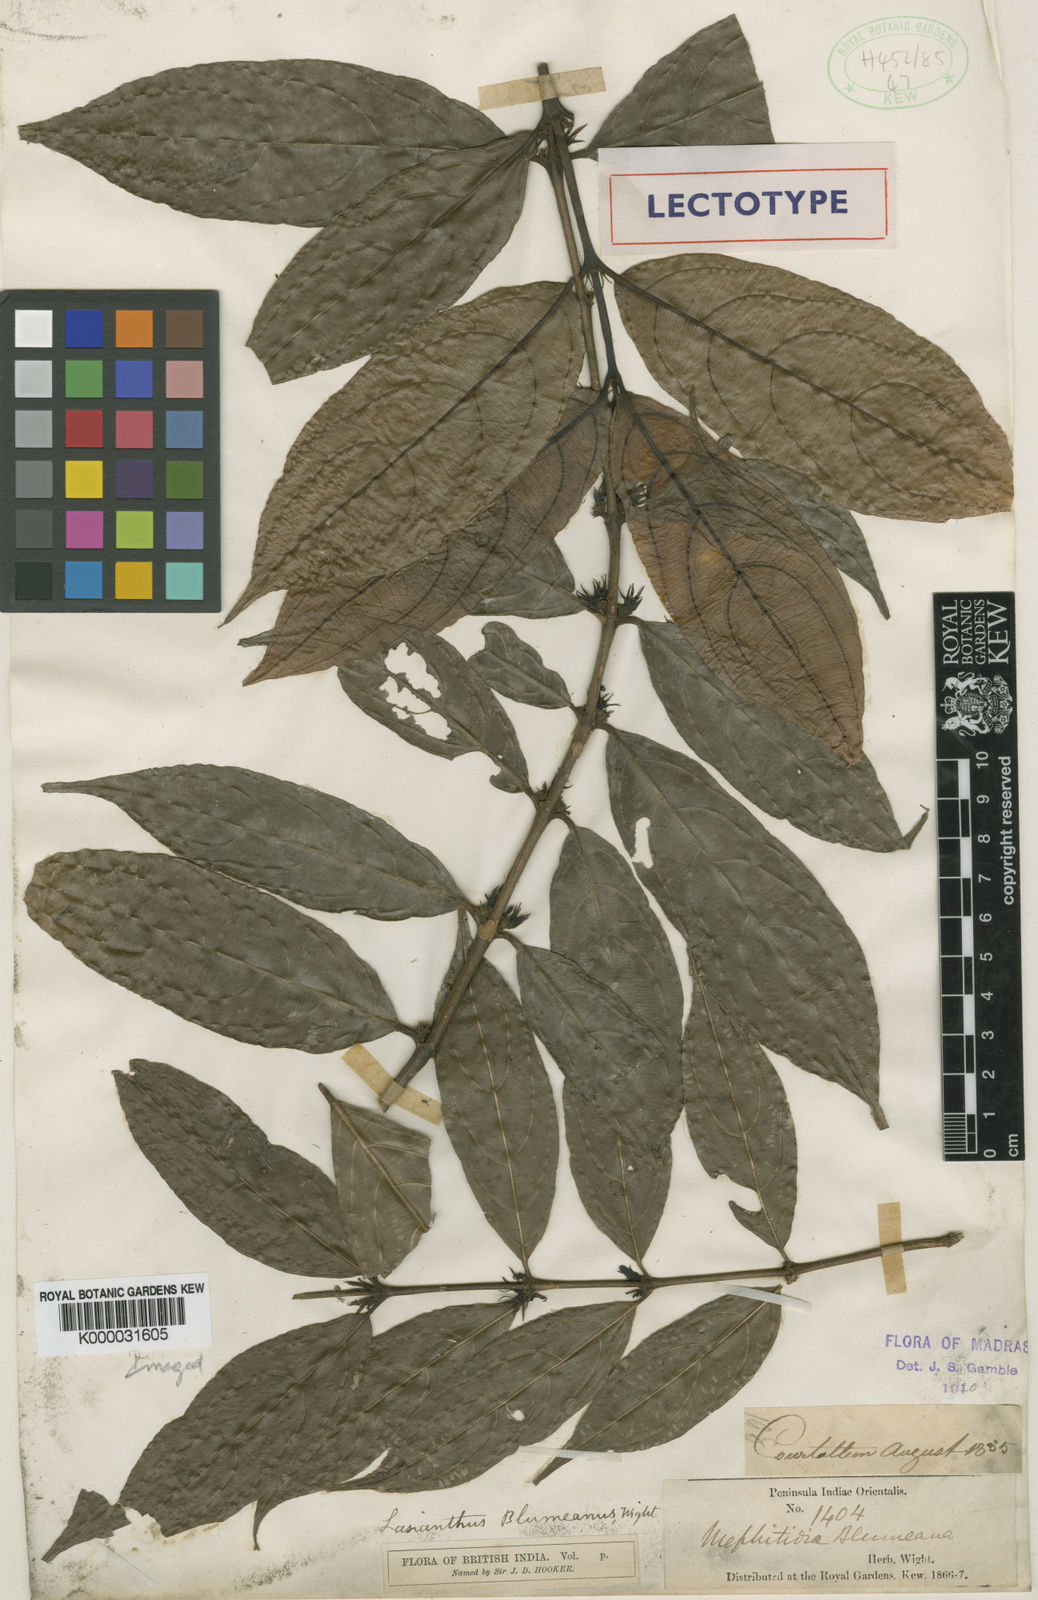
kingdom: Plantae
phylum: Tracheophyta
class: Magnoliopsida
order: Gentianales
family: Rubiaceae
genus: Lasianthus
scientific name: Lasianthus blumeanus
